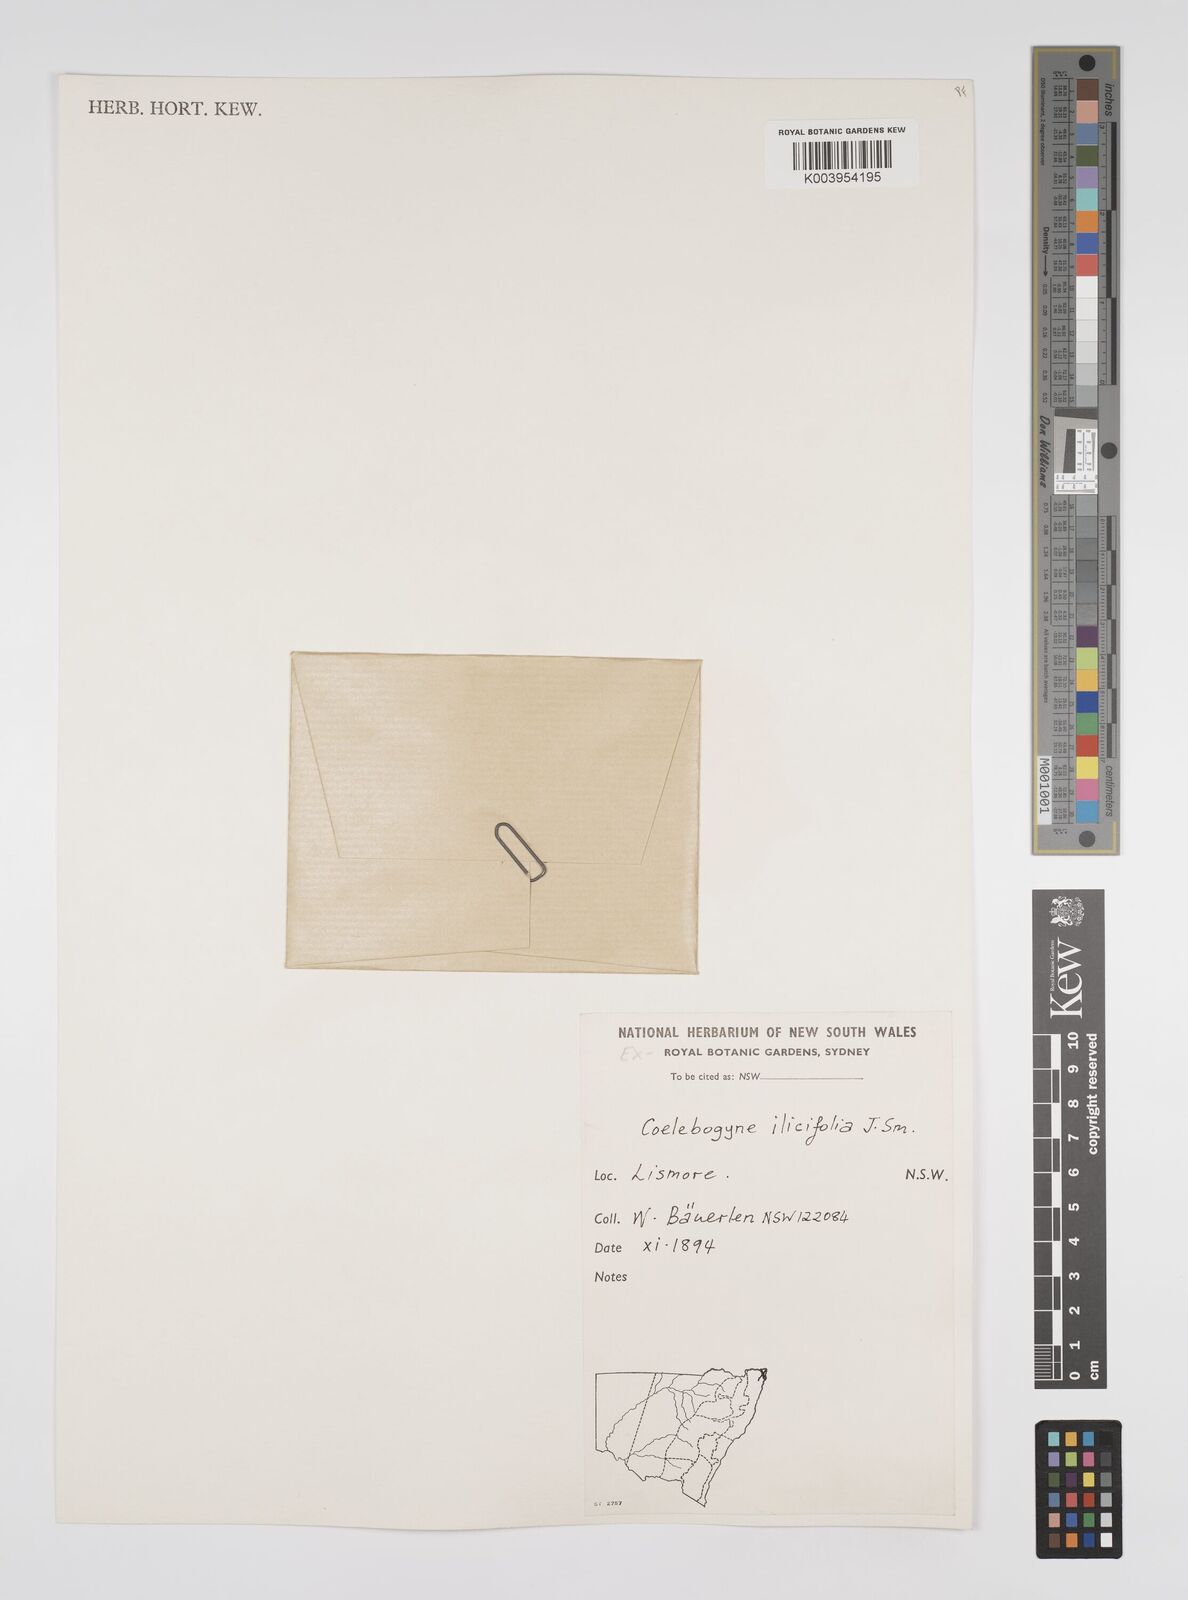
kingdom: Plantae
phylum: Tracheophyta
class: Magnoliopsida
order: Malpighiales
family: Euphorbiaceae
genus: Alchornea
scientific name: Alchornea ilicifolia
